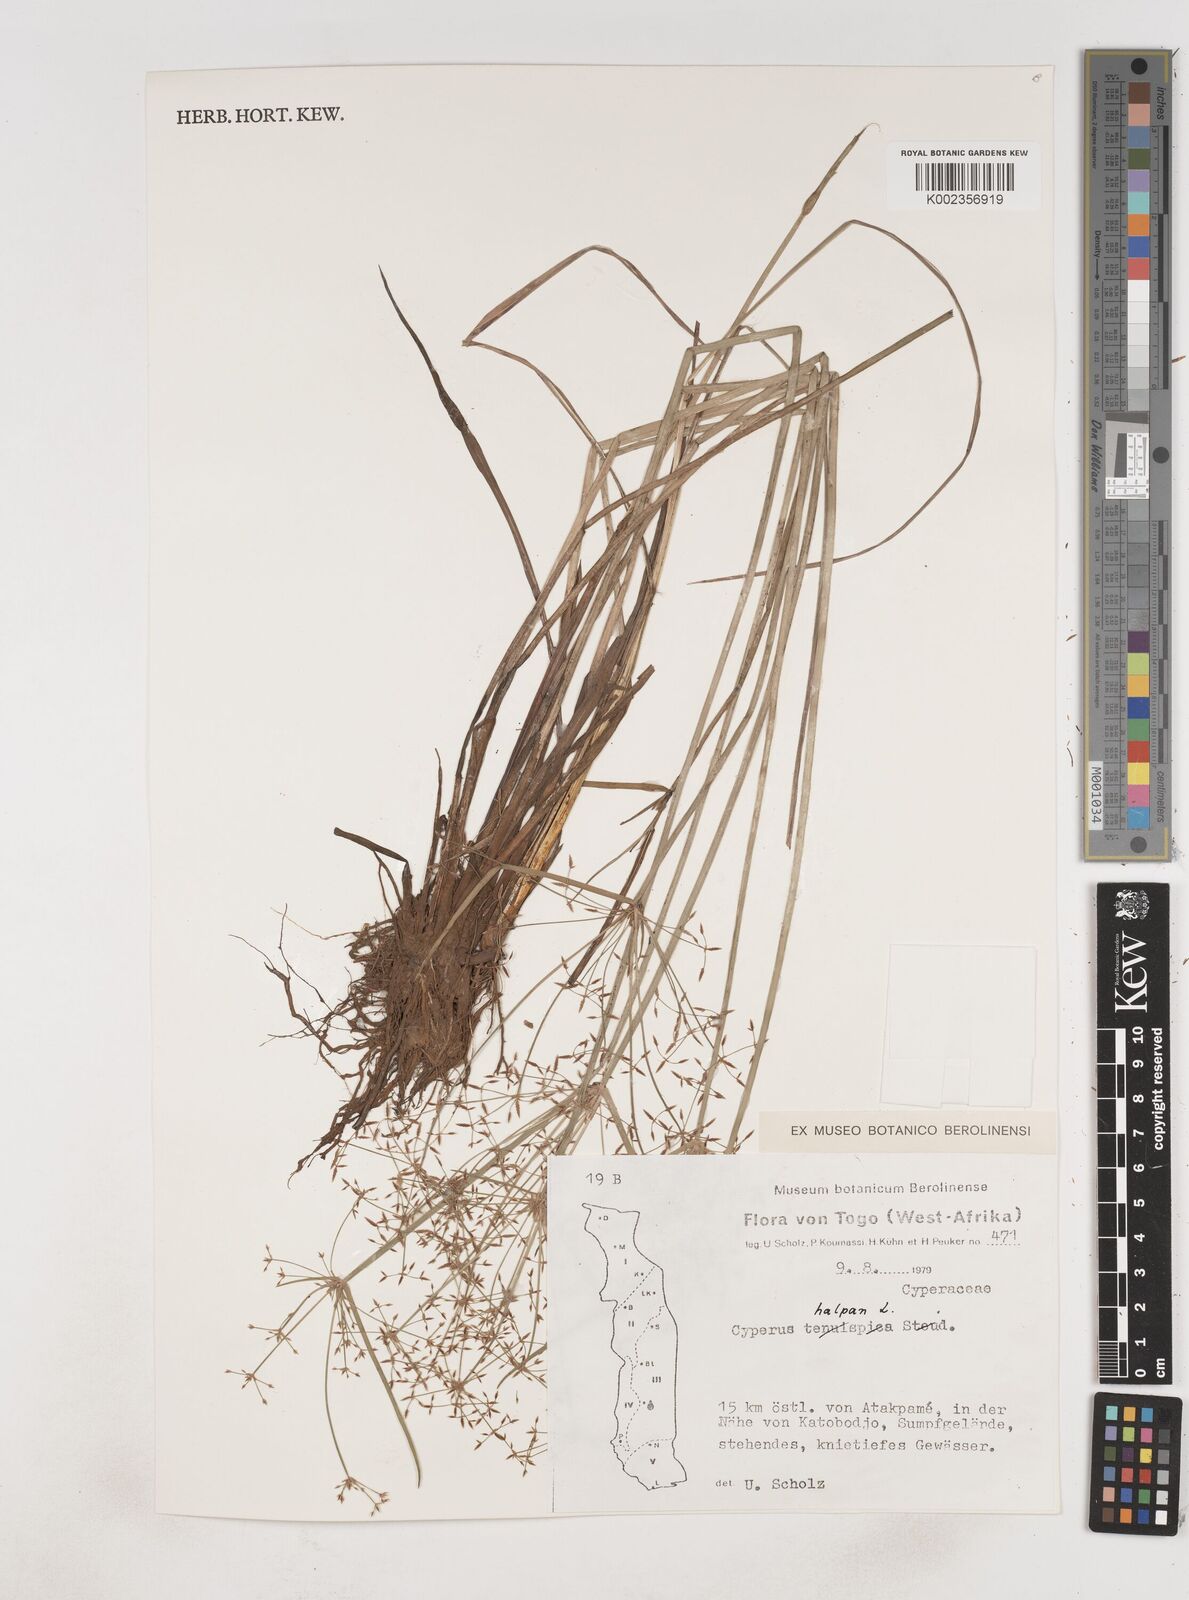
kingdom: Plantae
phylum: Tracheophyta
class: Liliopsida
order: Poales
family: Cyperaceae
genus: Cyperus
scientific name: Cyperus haspan
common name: Haspan flatsedge
